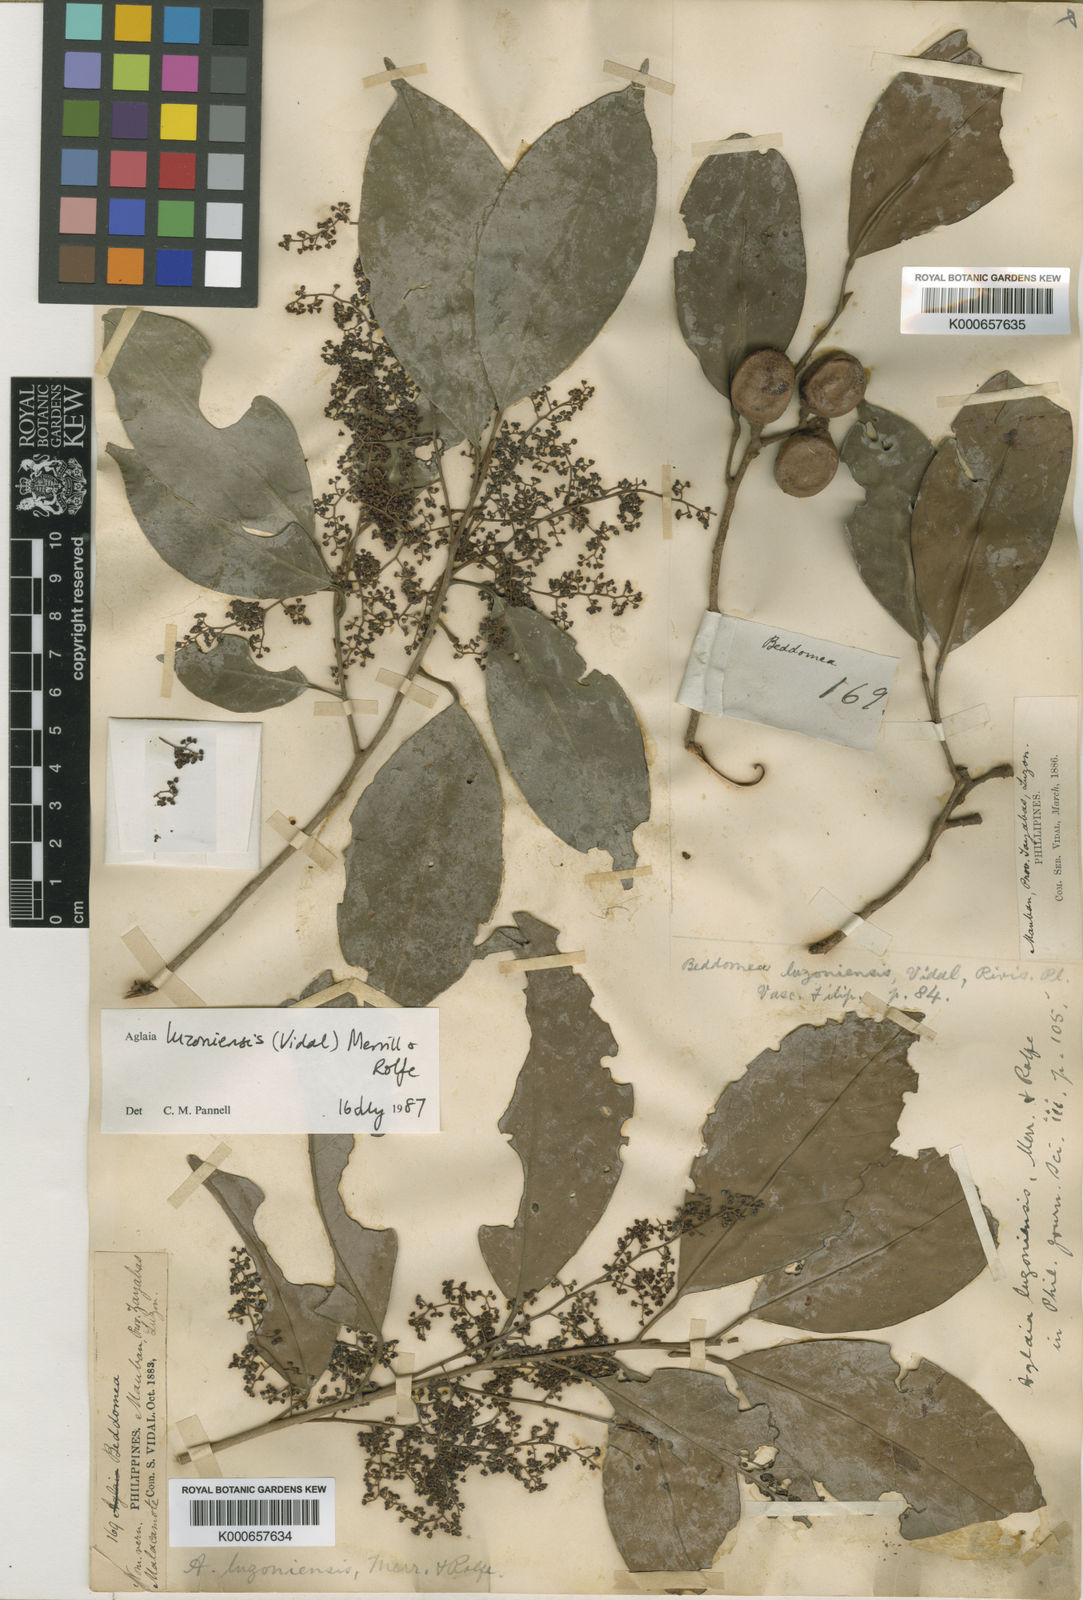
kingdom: Plantae
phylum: Tracheophyta
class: Magnoliopsida
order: Sapindales
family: Meliaceae
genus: Aglaia
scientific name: Aglaia luzoniensis
